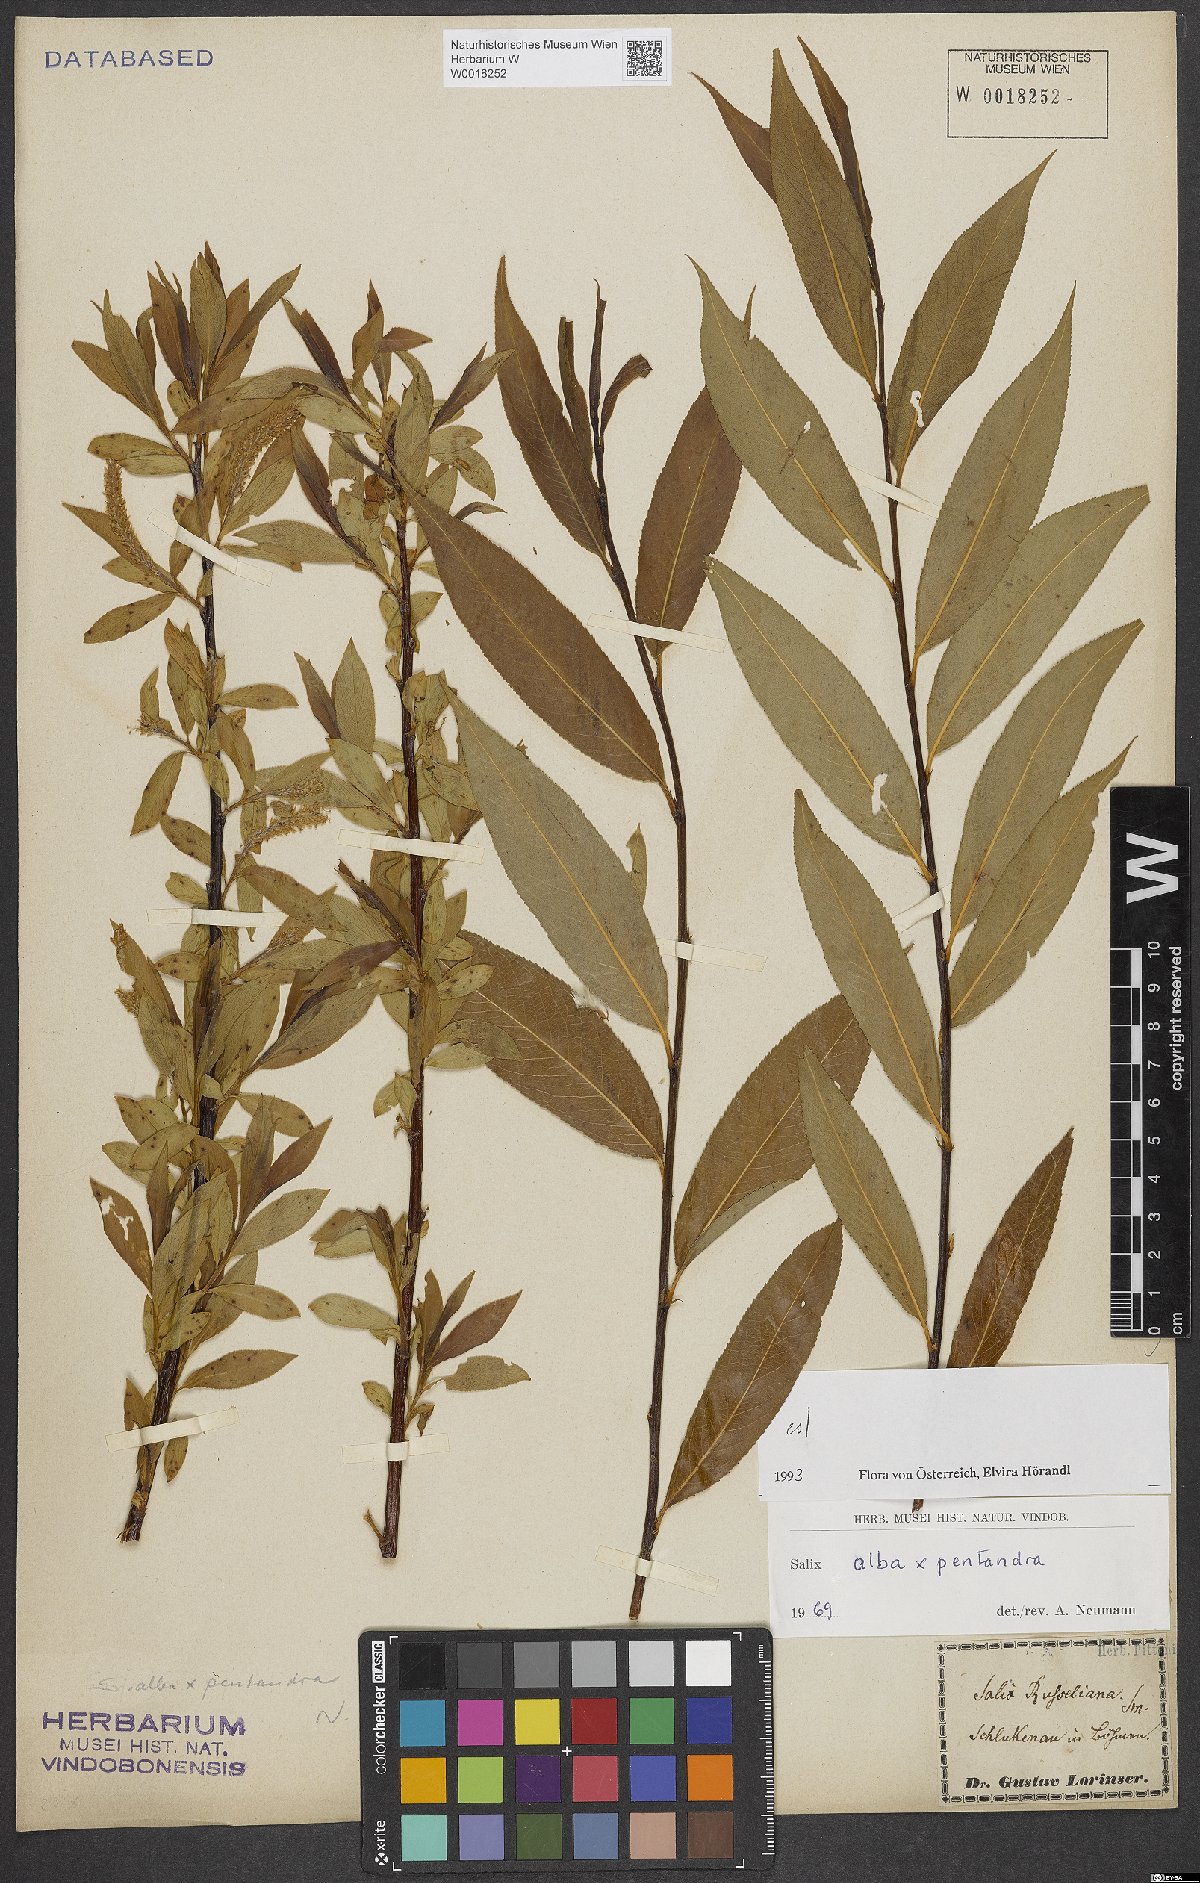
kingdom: Plantae
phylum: Tracheophyta
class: Magnoliopsida
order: Malpighiales
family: Salicaceae
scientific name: Salicaceae
